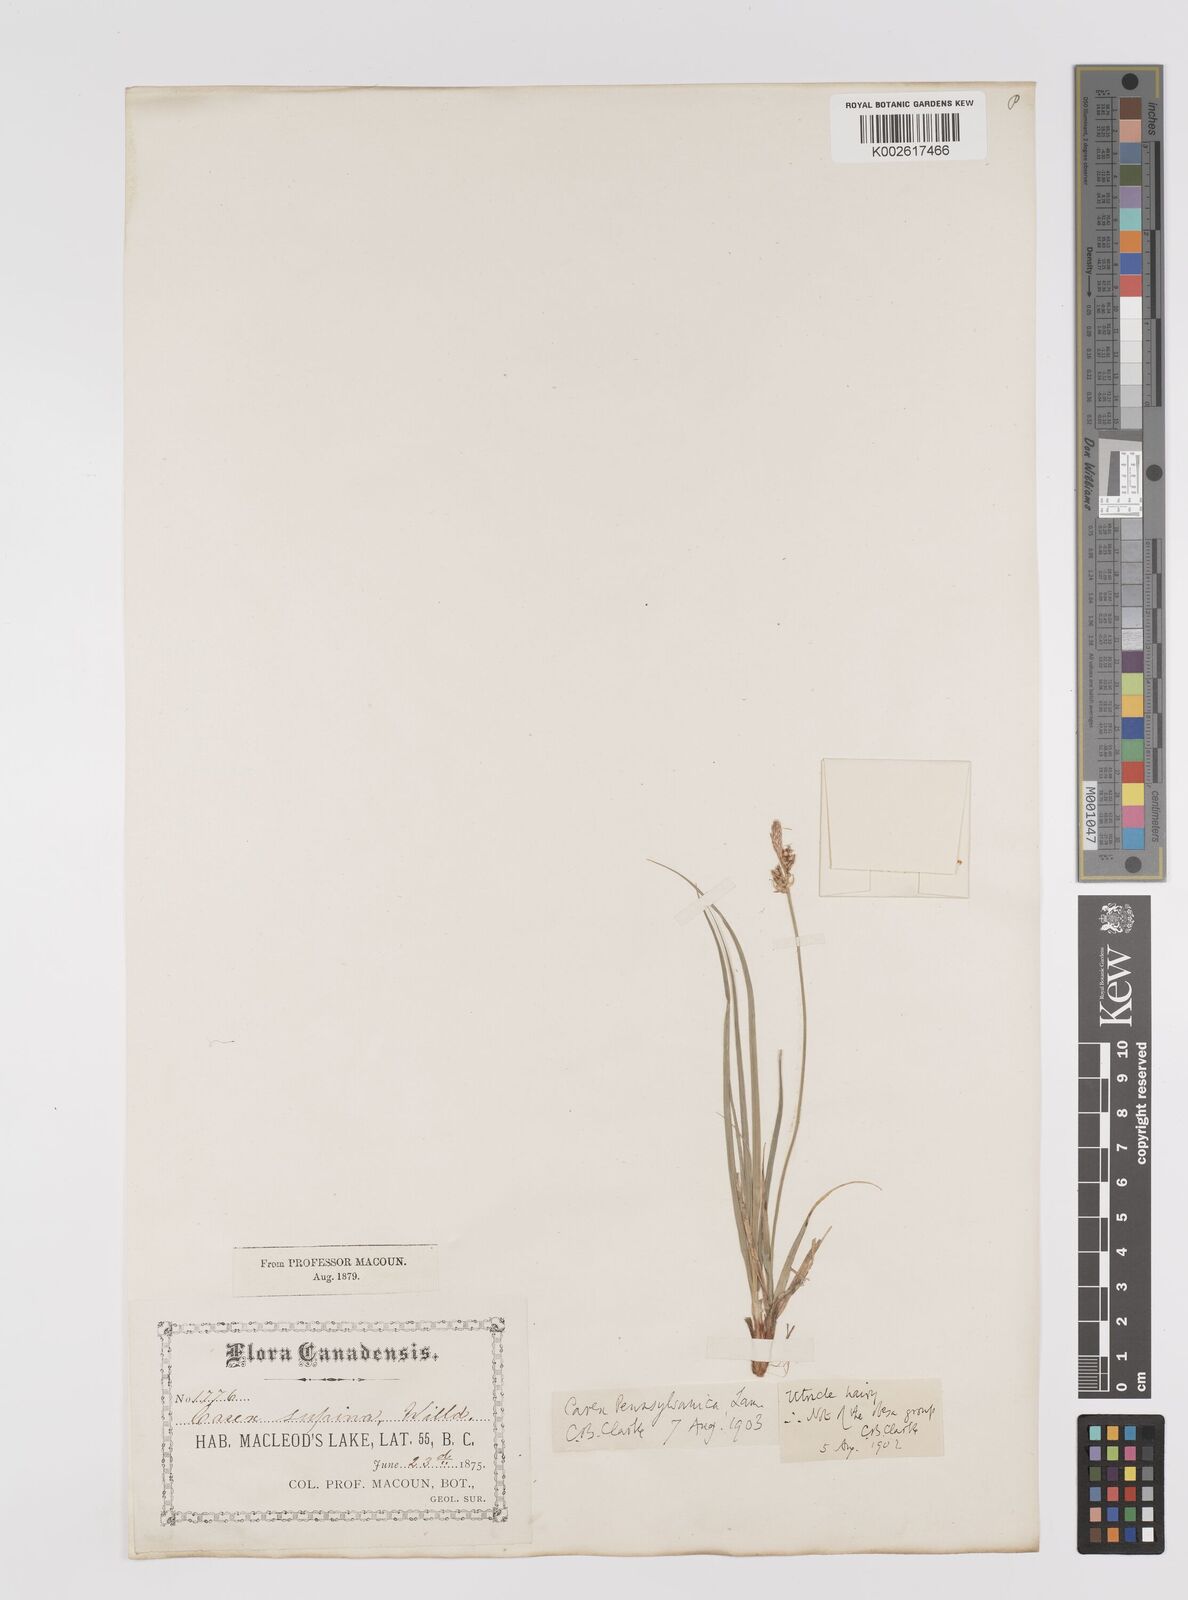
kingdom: Plantae
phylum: Tracheophyta
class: Liliopsida
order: Poales
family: Cyperaceae
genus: Carex
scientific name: Carex pensylvanica
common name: Common oak sedge
